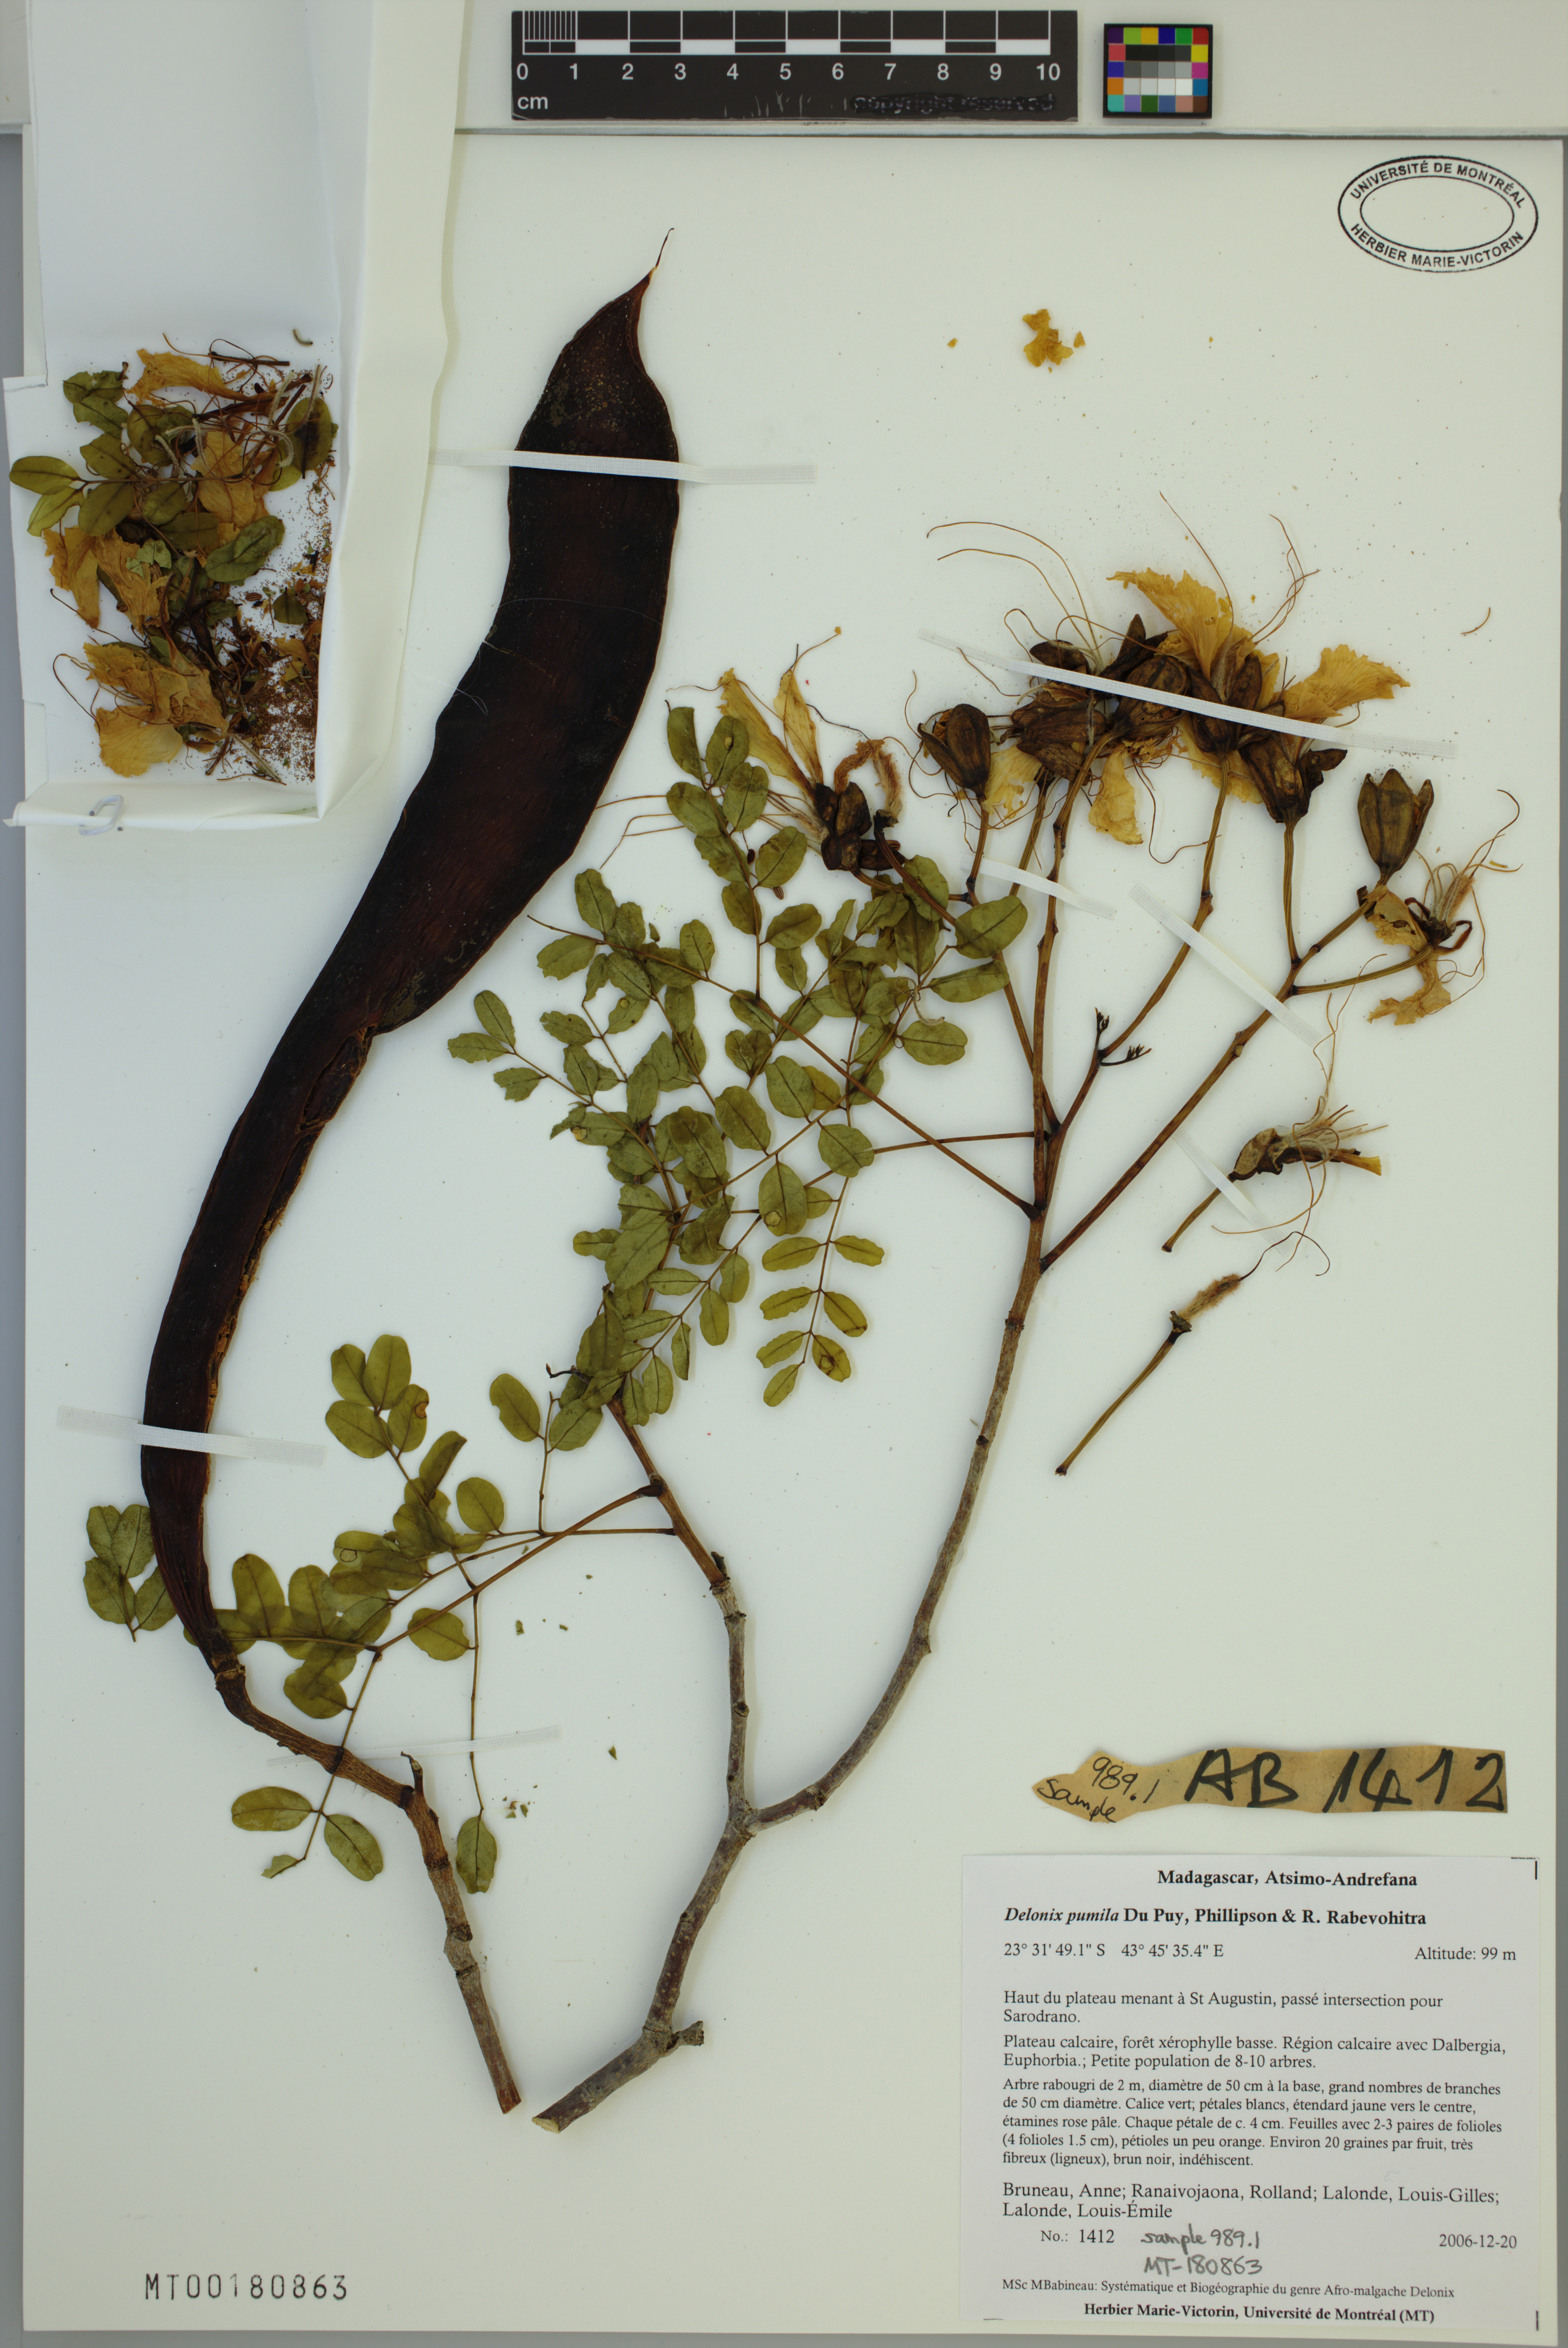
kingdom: Plantae
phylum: Tracheophyta
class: Magnoliopsida
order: Fabales
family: Fabaceae
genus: Delonix
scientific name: Delonix pumila
